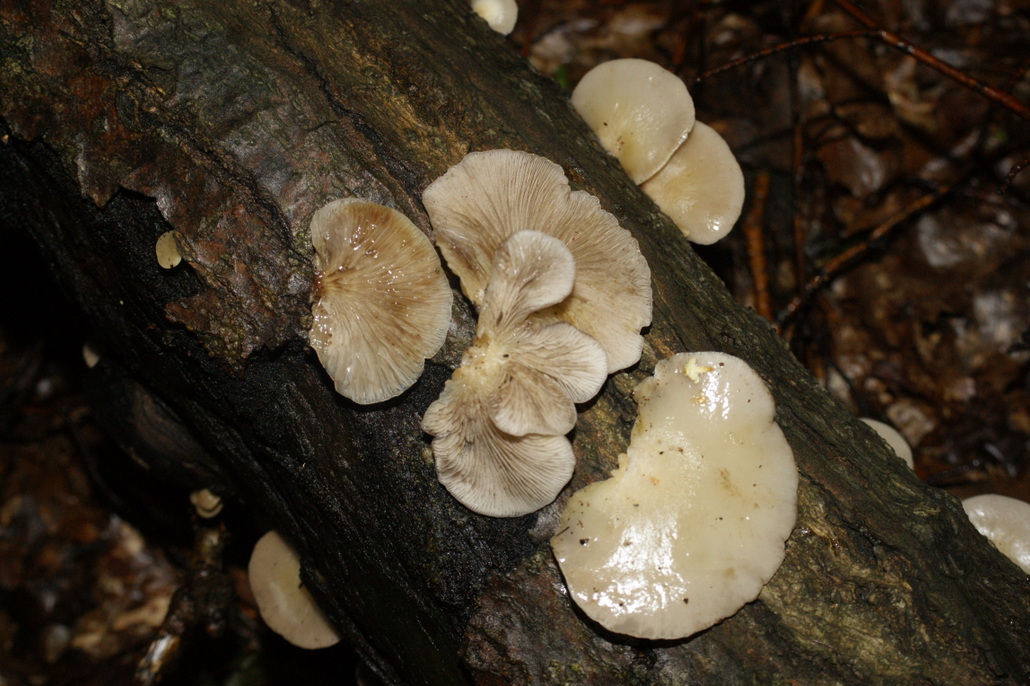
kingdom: Fungi
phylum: Basidiomycota
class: Agaricomycetes
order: Agaricales
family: Crepidotaceae
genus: Crepidotus
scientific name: Crepidotus mollis
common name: blød muslingesvamp
